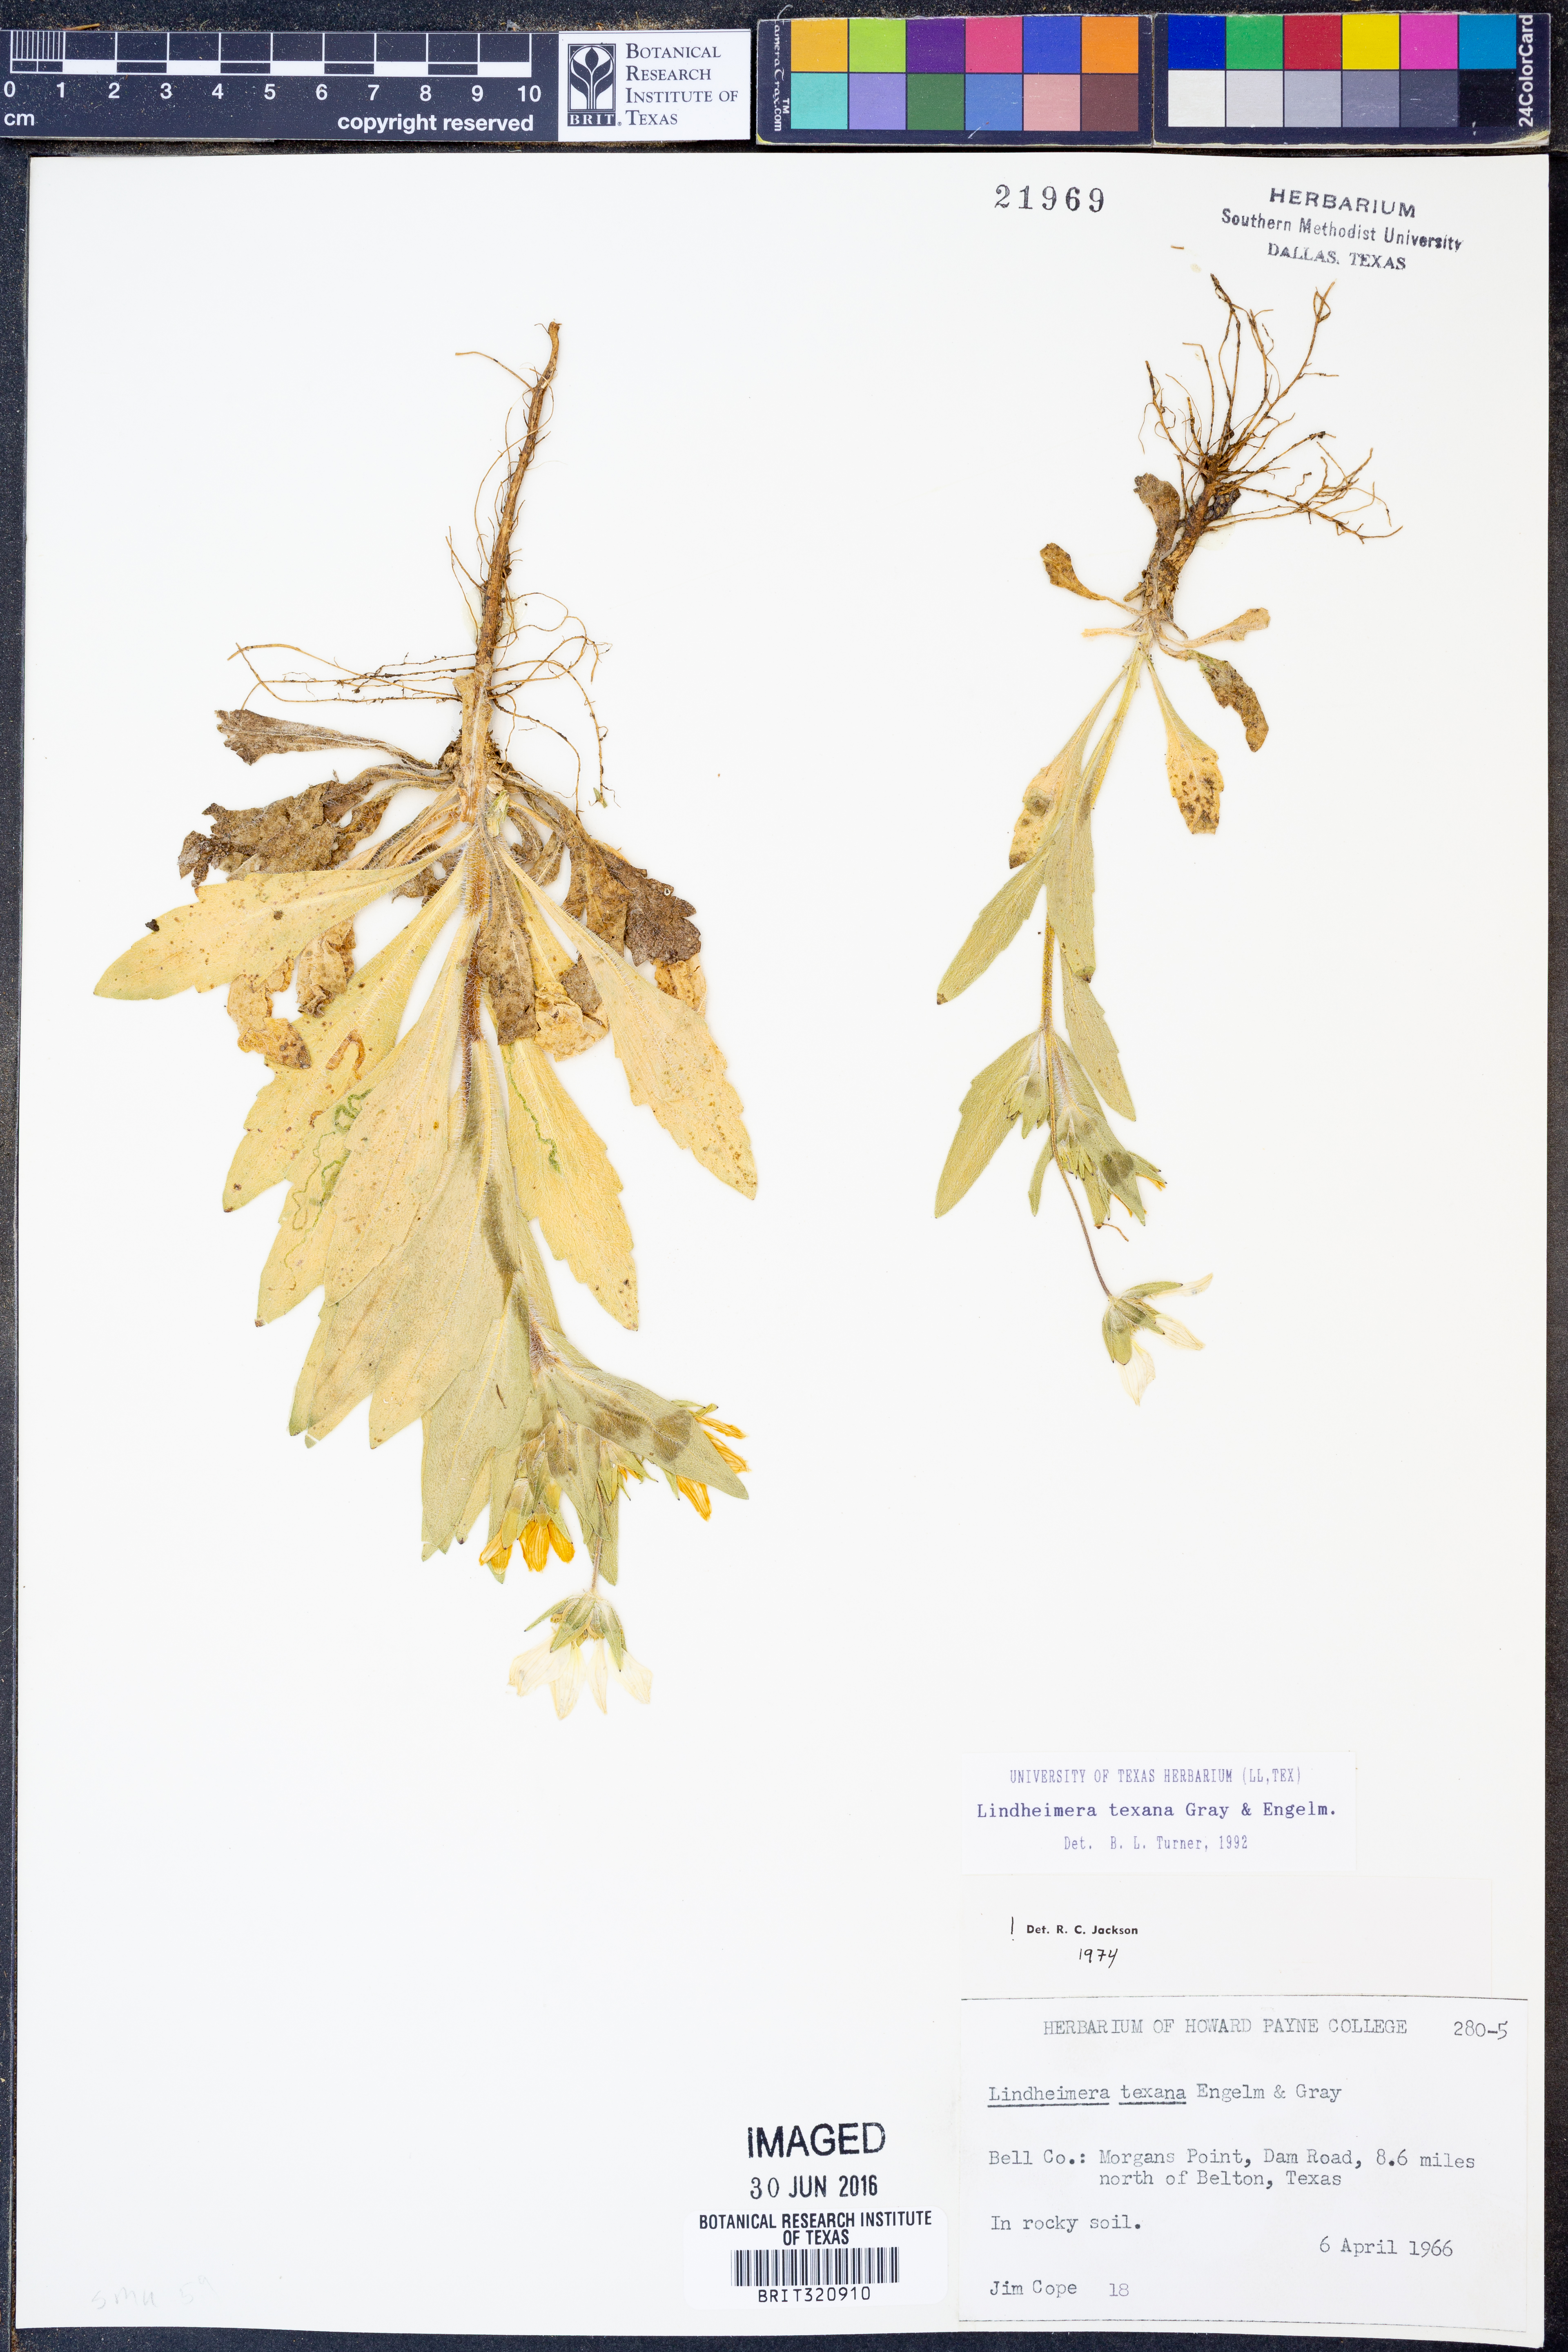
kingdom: Plantae
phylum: Tracheophyta
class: Magnoliopsida
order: Asterales
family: Asteraceae
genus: Lindheimera
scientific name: Lindheimera texana
